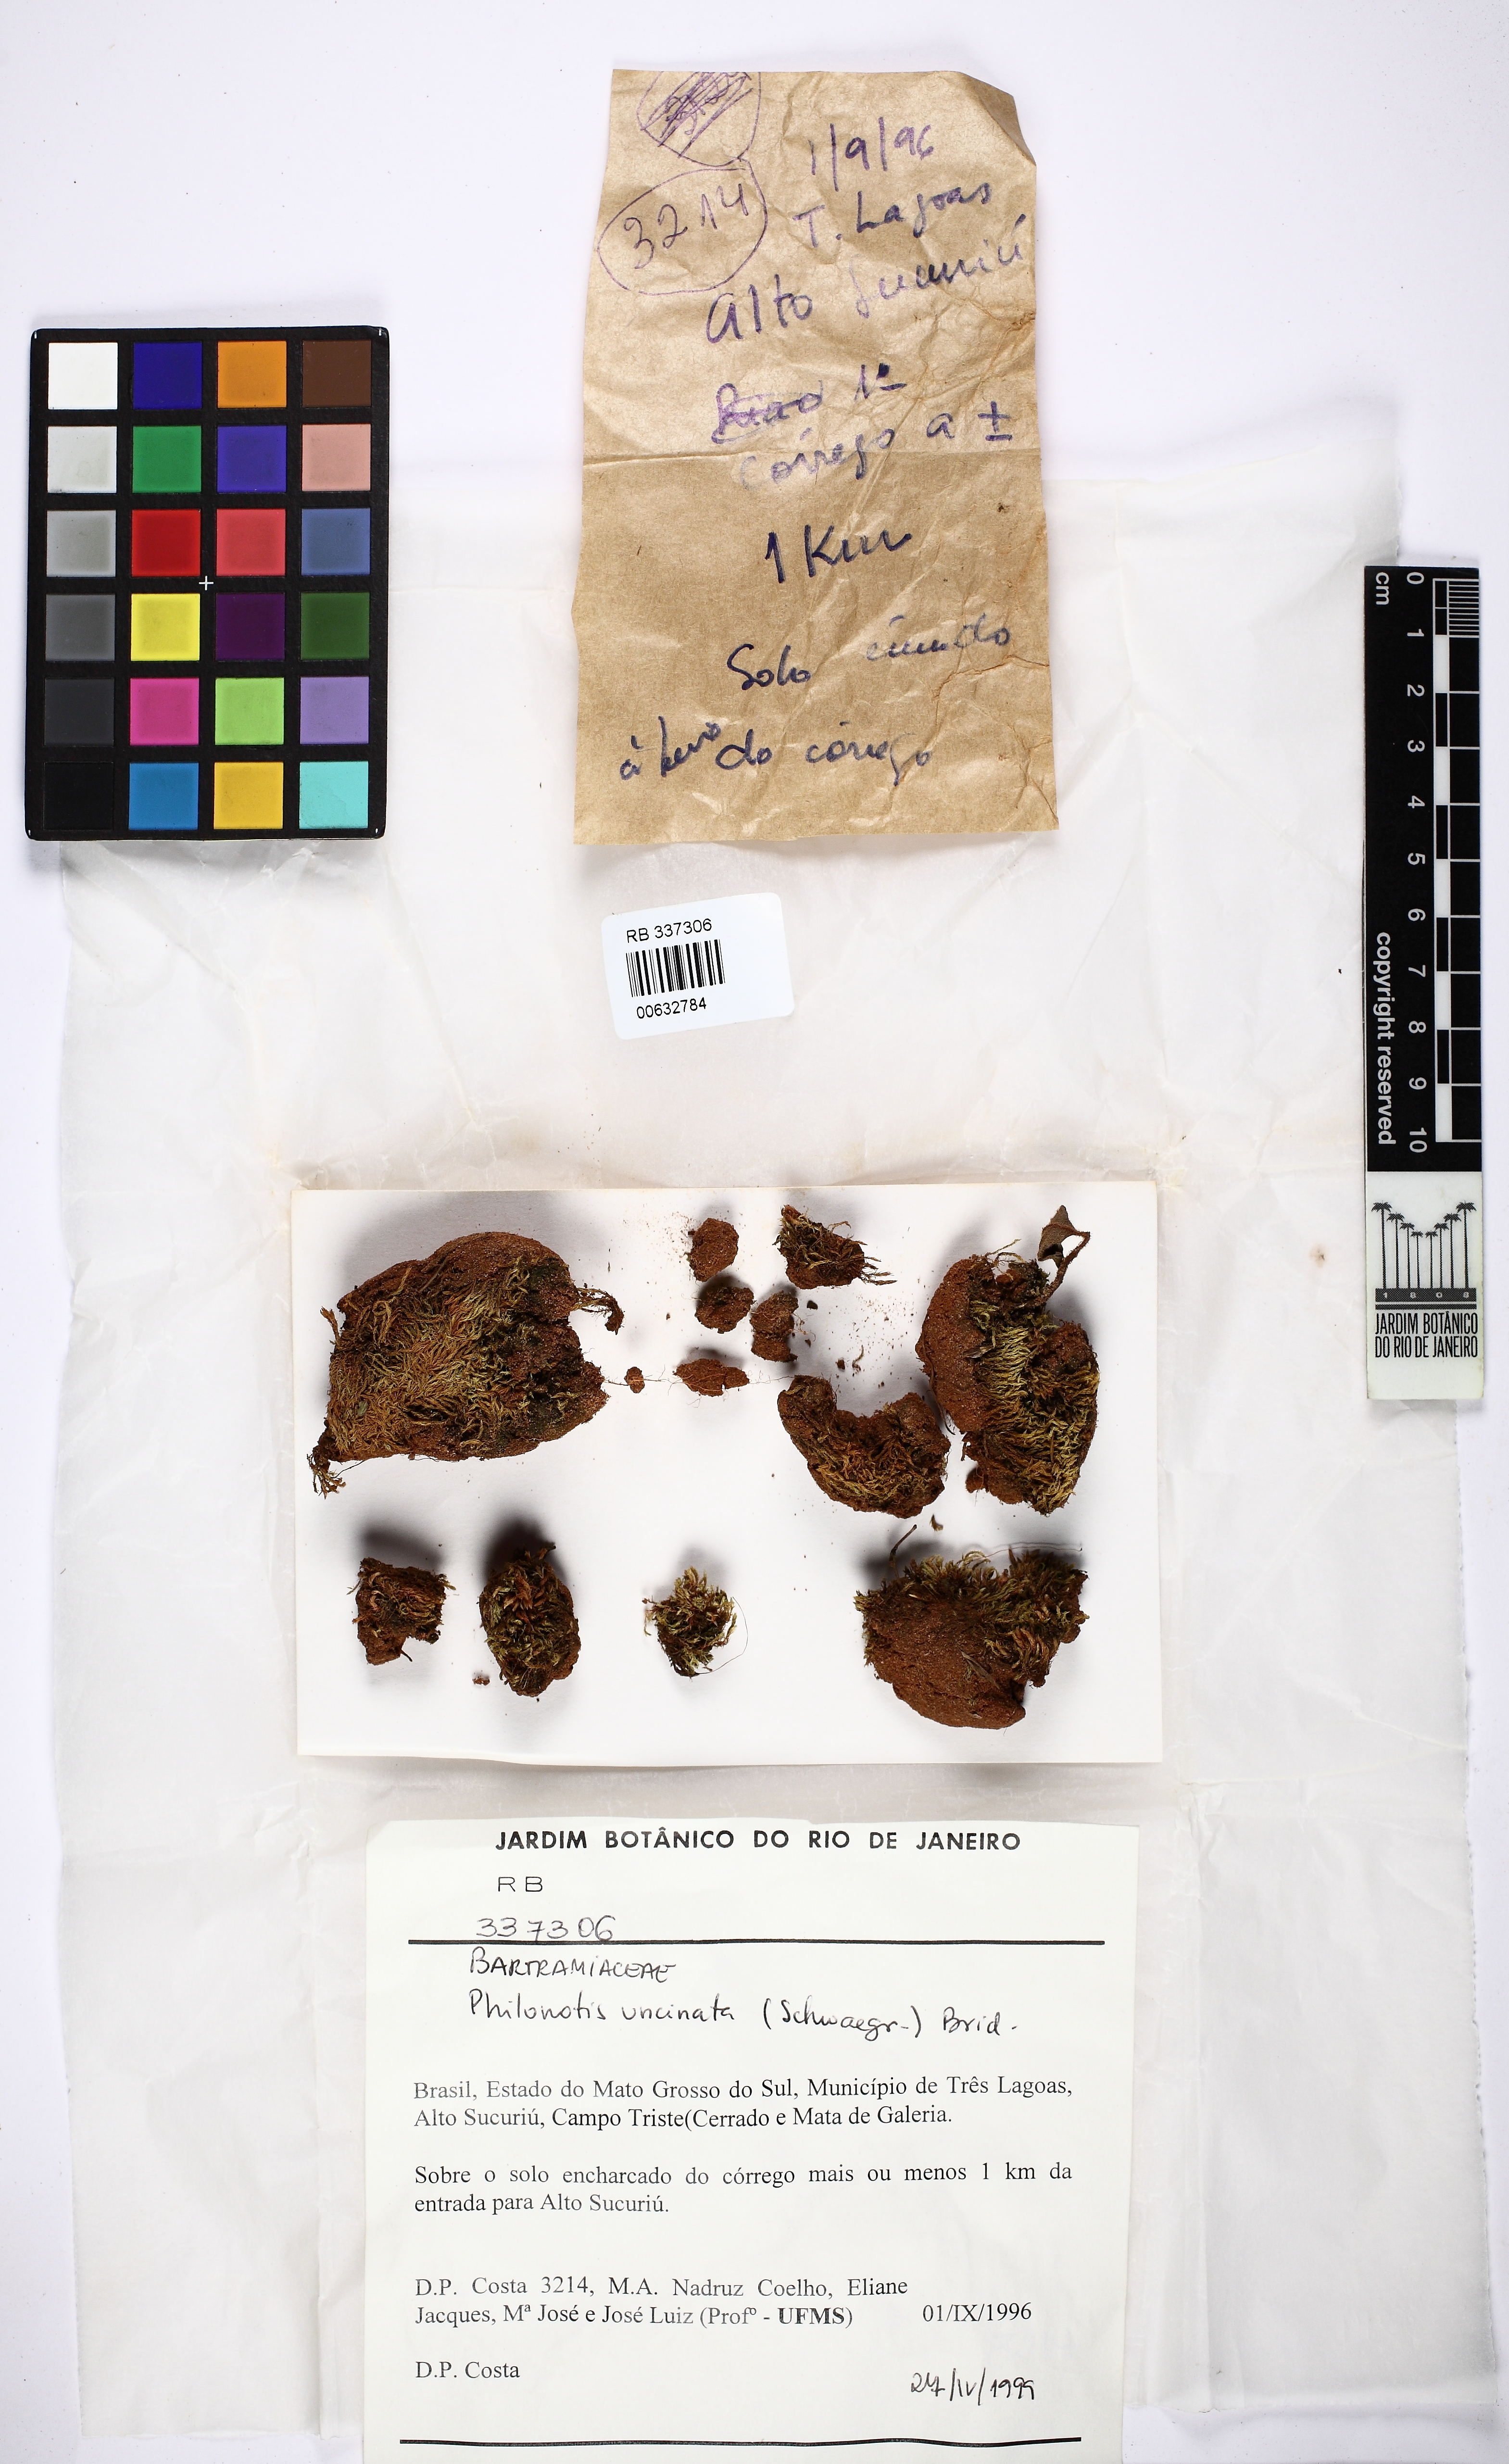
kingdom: Plantae
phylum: Bryophyta
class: Bryopsida
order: Bartramiales
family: Bartramiaceae
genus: Philonotis
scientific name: Philonotis uncinata
